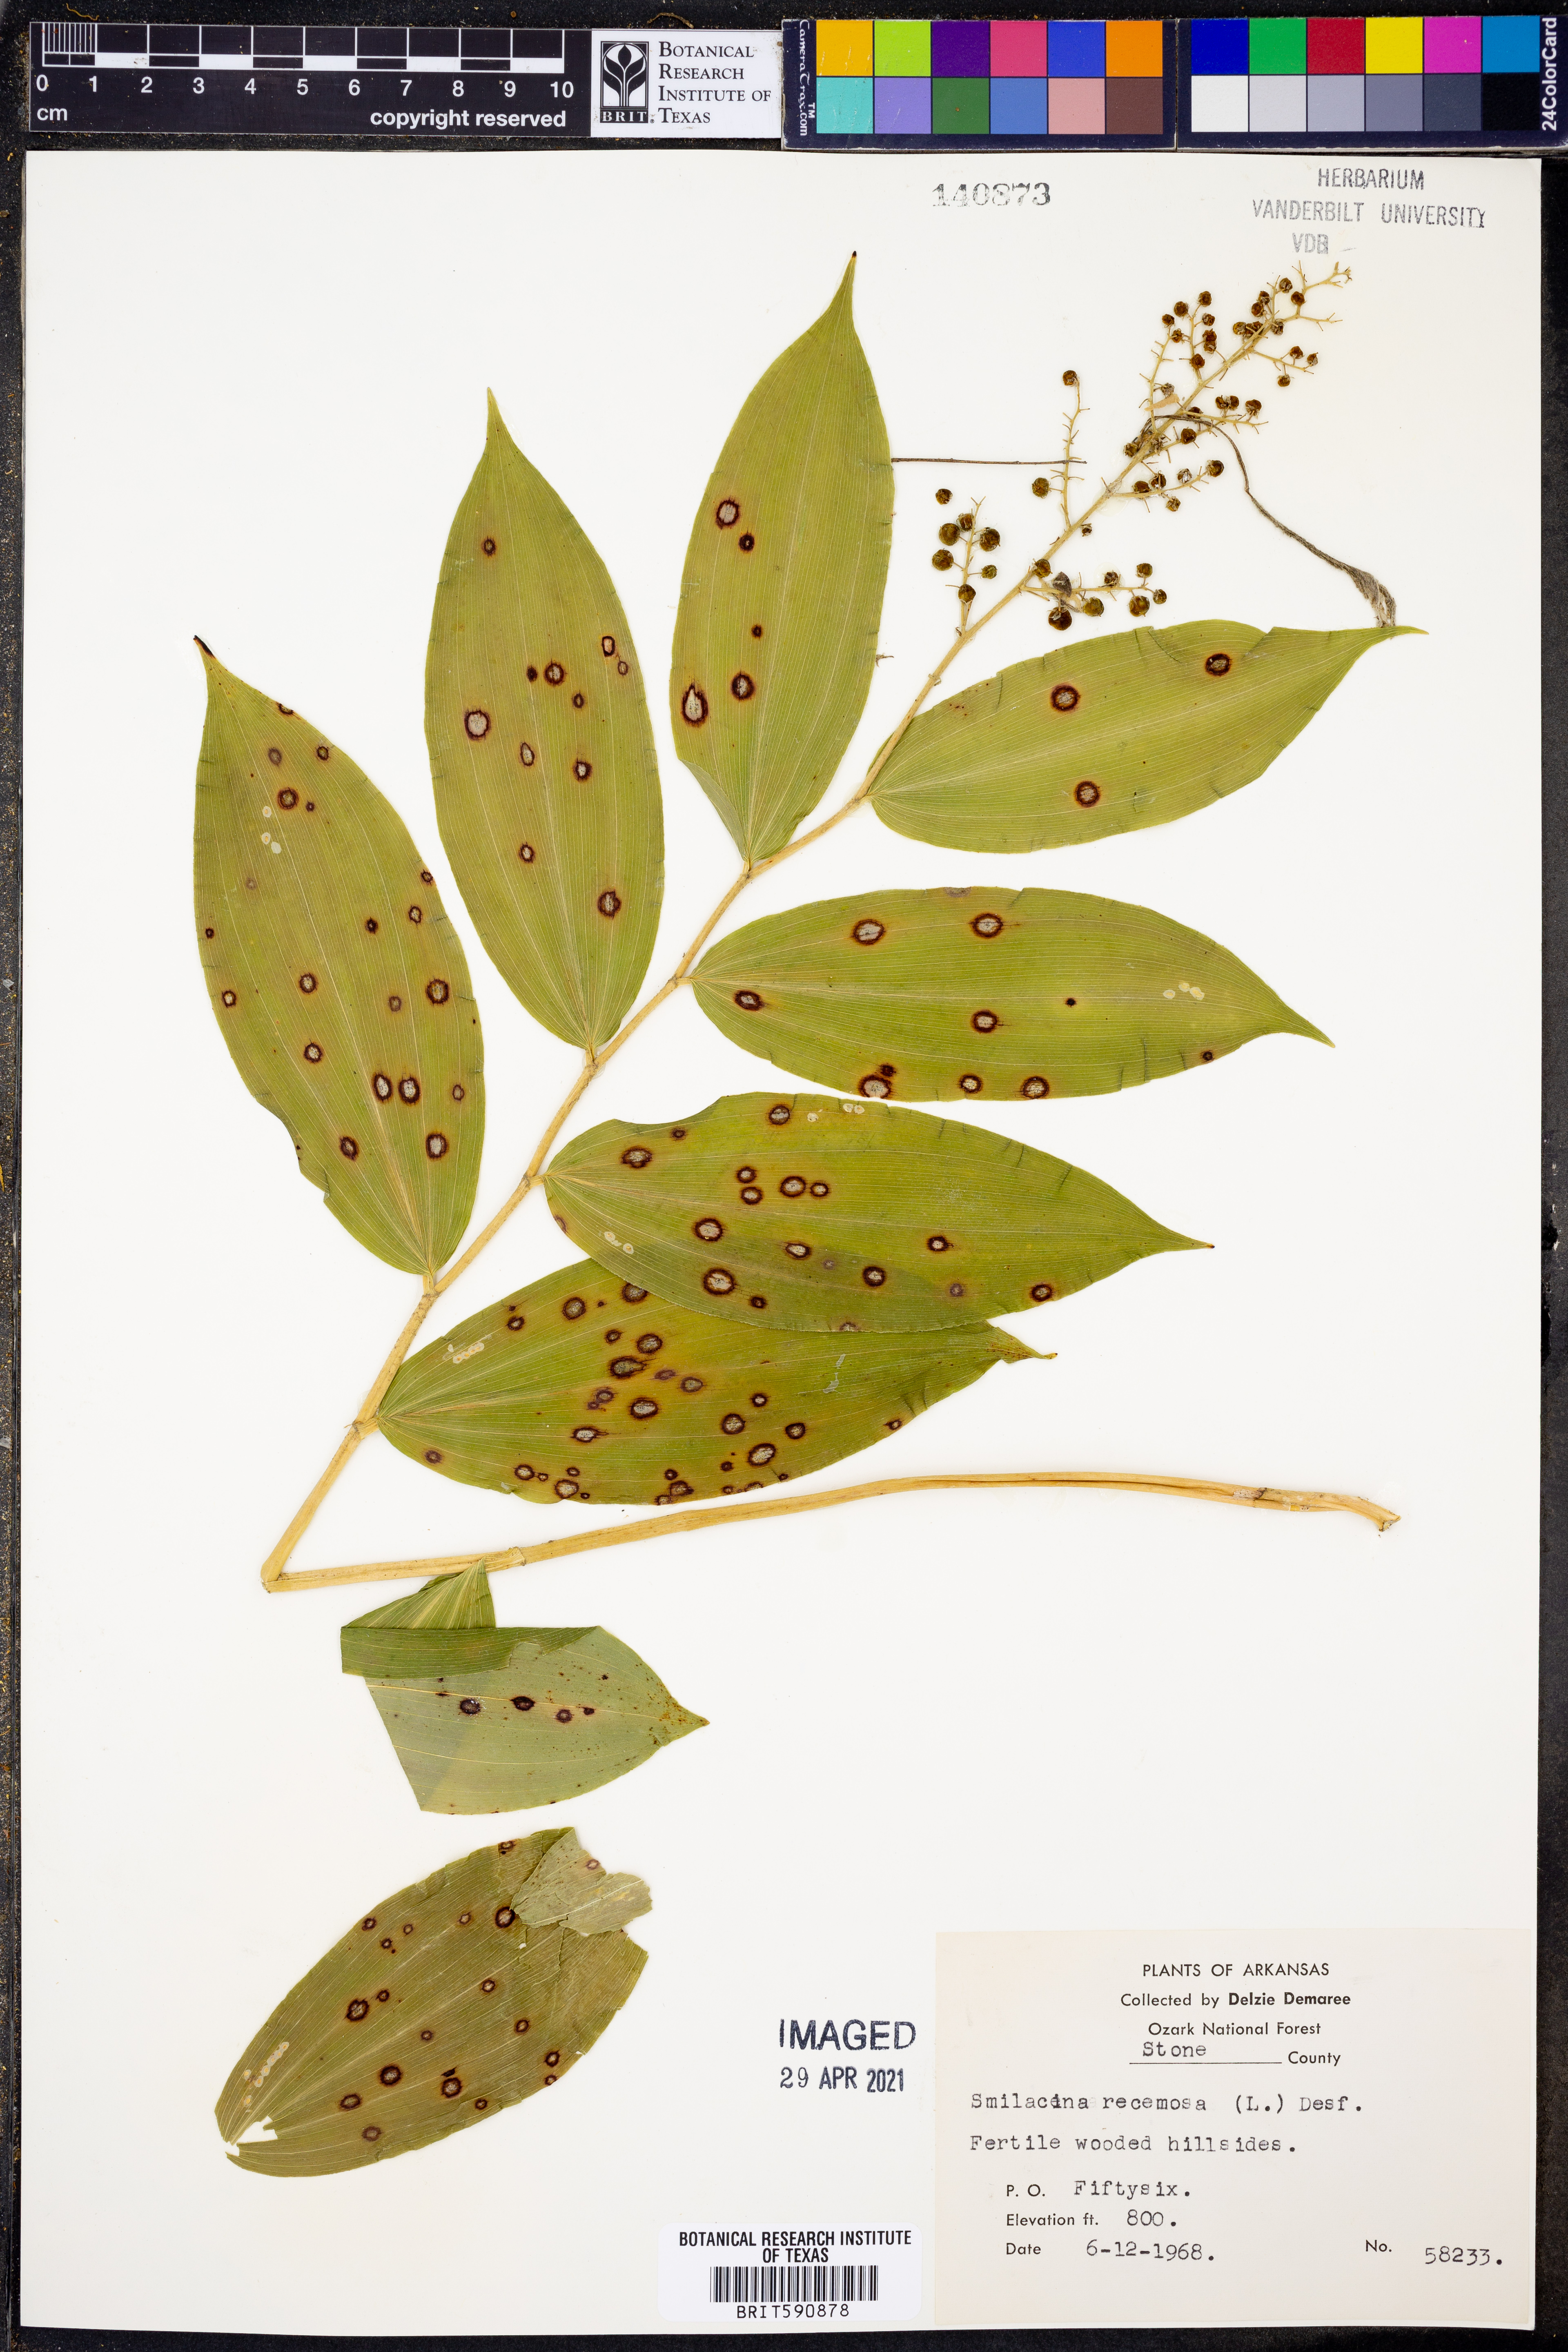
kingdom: Plantae
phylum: Tracheophyta
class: Liliopsida
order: Asparagales
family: Asparagaceae
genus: Maianthemum
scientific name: Maianthemum racemosum
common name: False spikenard
